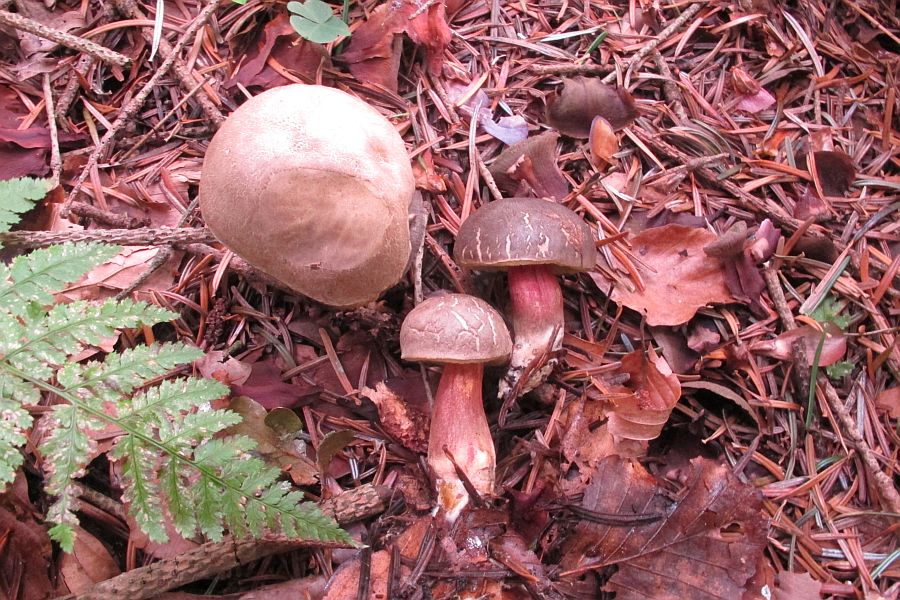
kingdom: Fungi
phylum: Basidiomycota
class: Agaricomycetes
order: Boletales
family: Boletaceae
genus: Xerocomellus
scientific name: Xerocomellus pruinatus
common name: dugget rørhat
